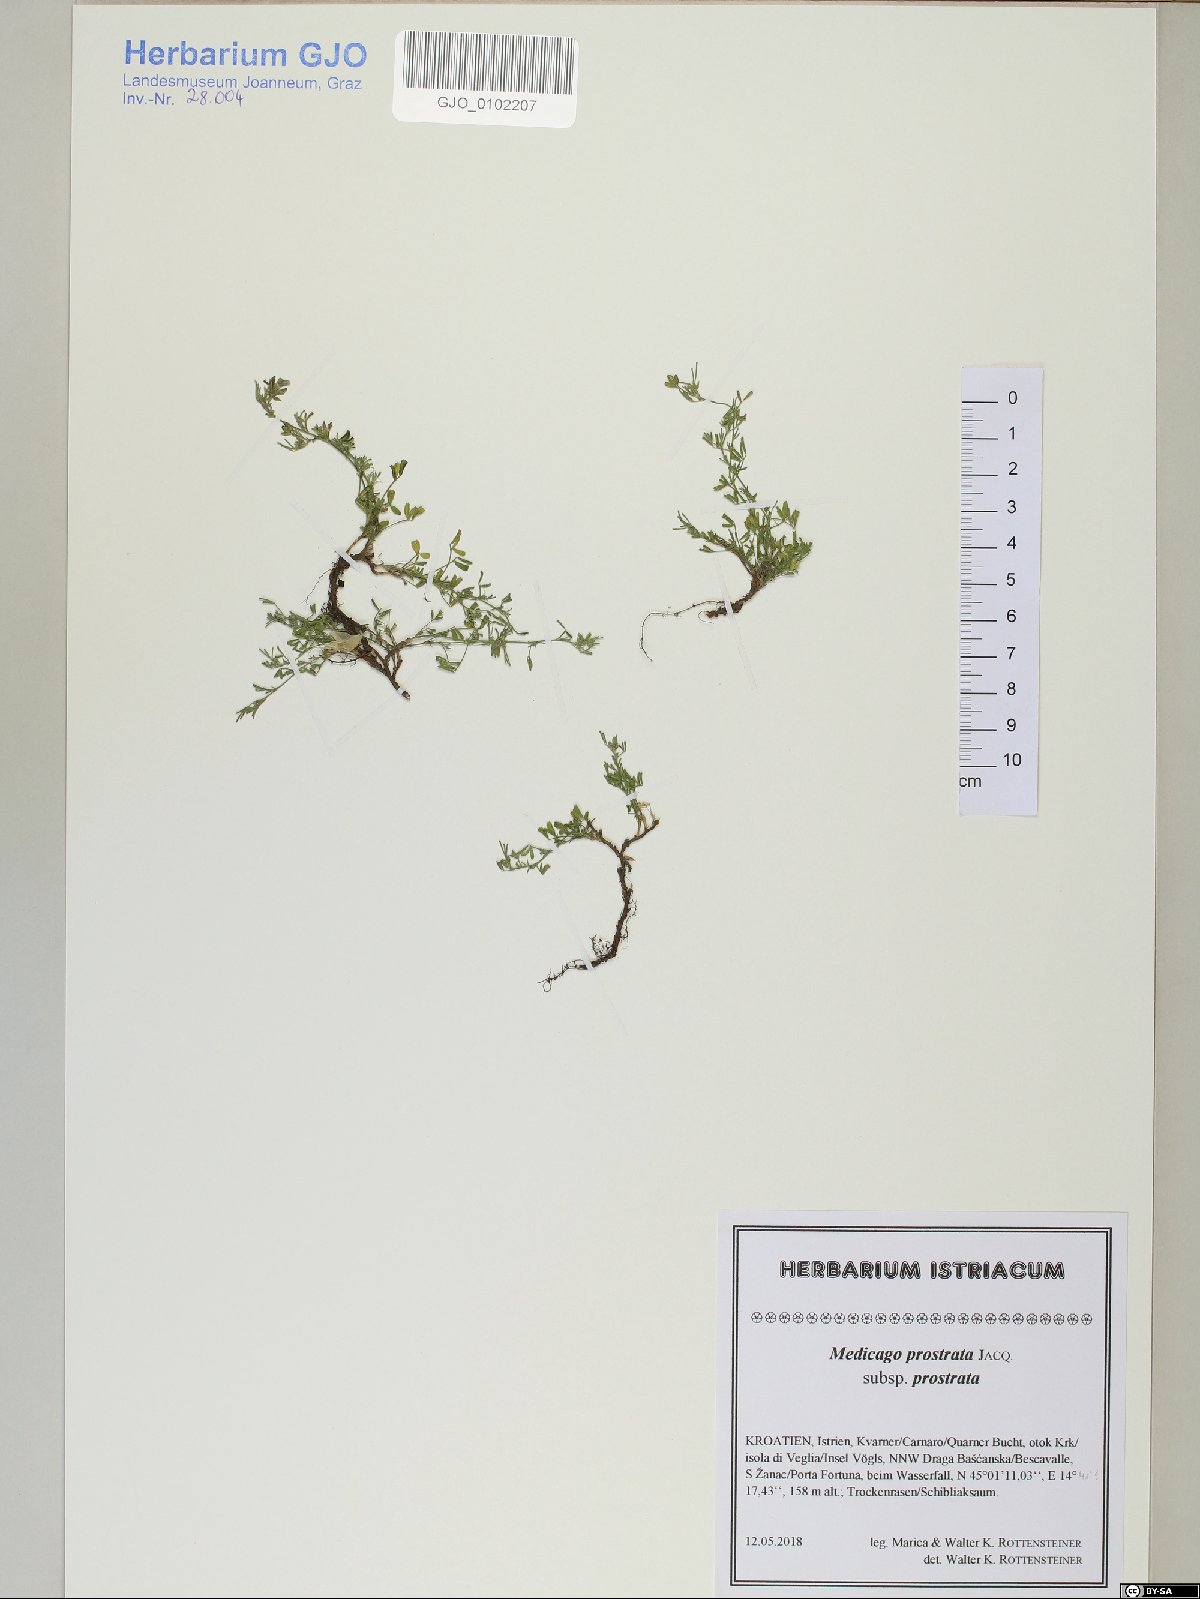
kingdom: Plantae
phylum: Tracheophyta
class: Magnoliopsida
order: Fabales
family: Fabaceae
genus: Medicago
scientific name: Medicago prostrata
